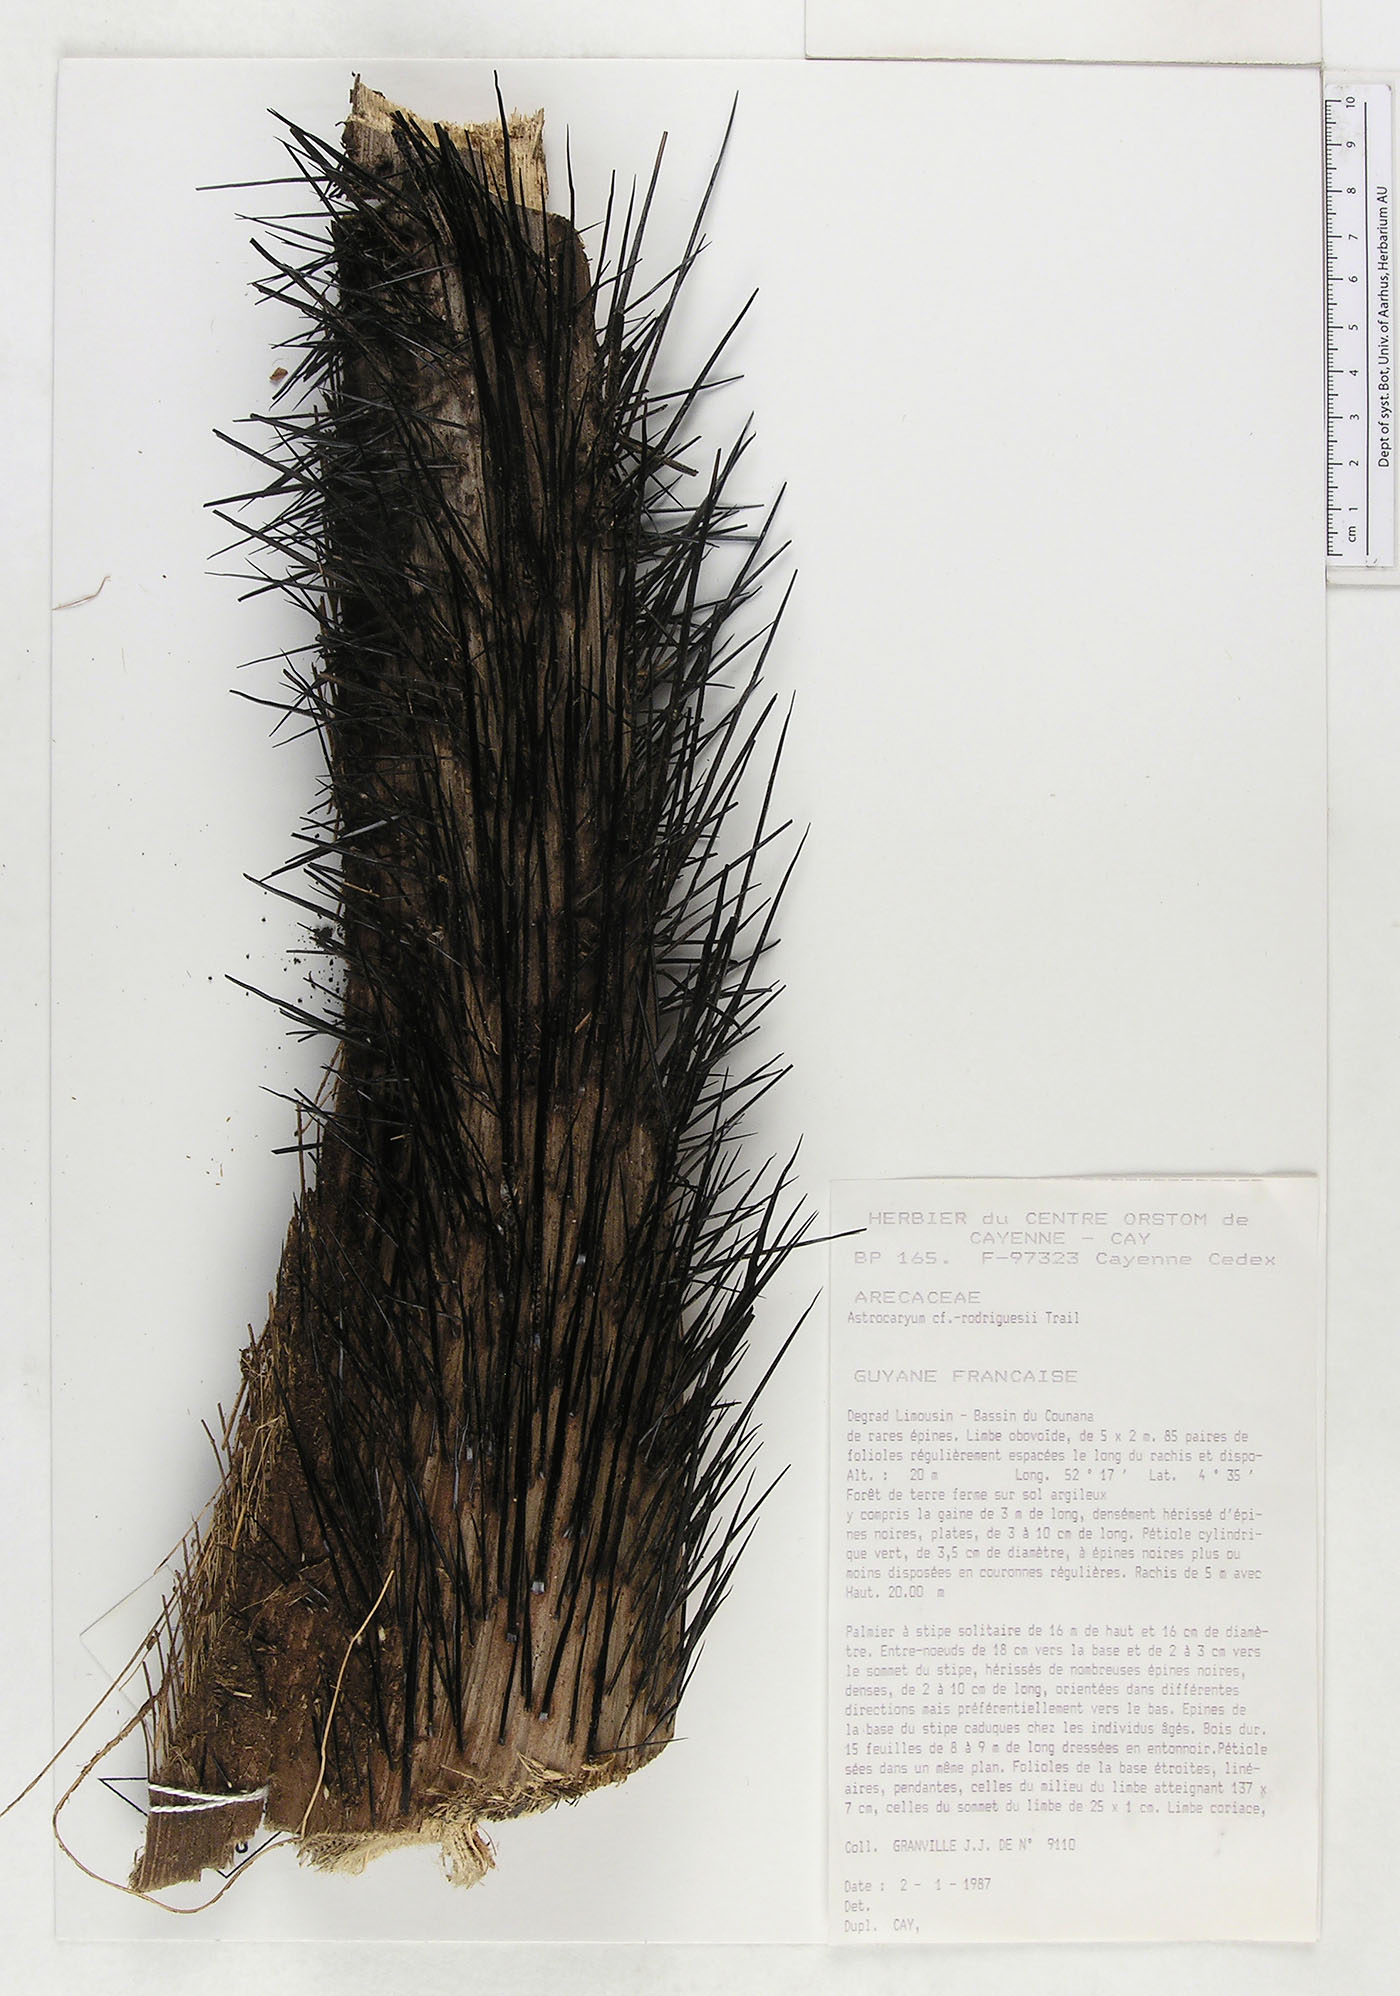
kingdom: Plantae
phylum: Tracheophyta
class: Liliopsida
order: Arecales
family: Arecaceae
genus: Astrocaryum
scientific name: Astrocaryum rodriguesii
